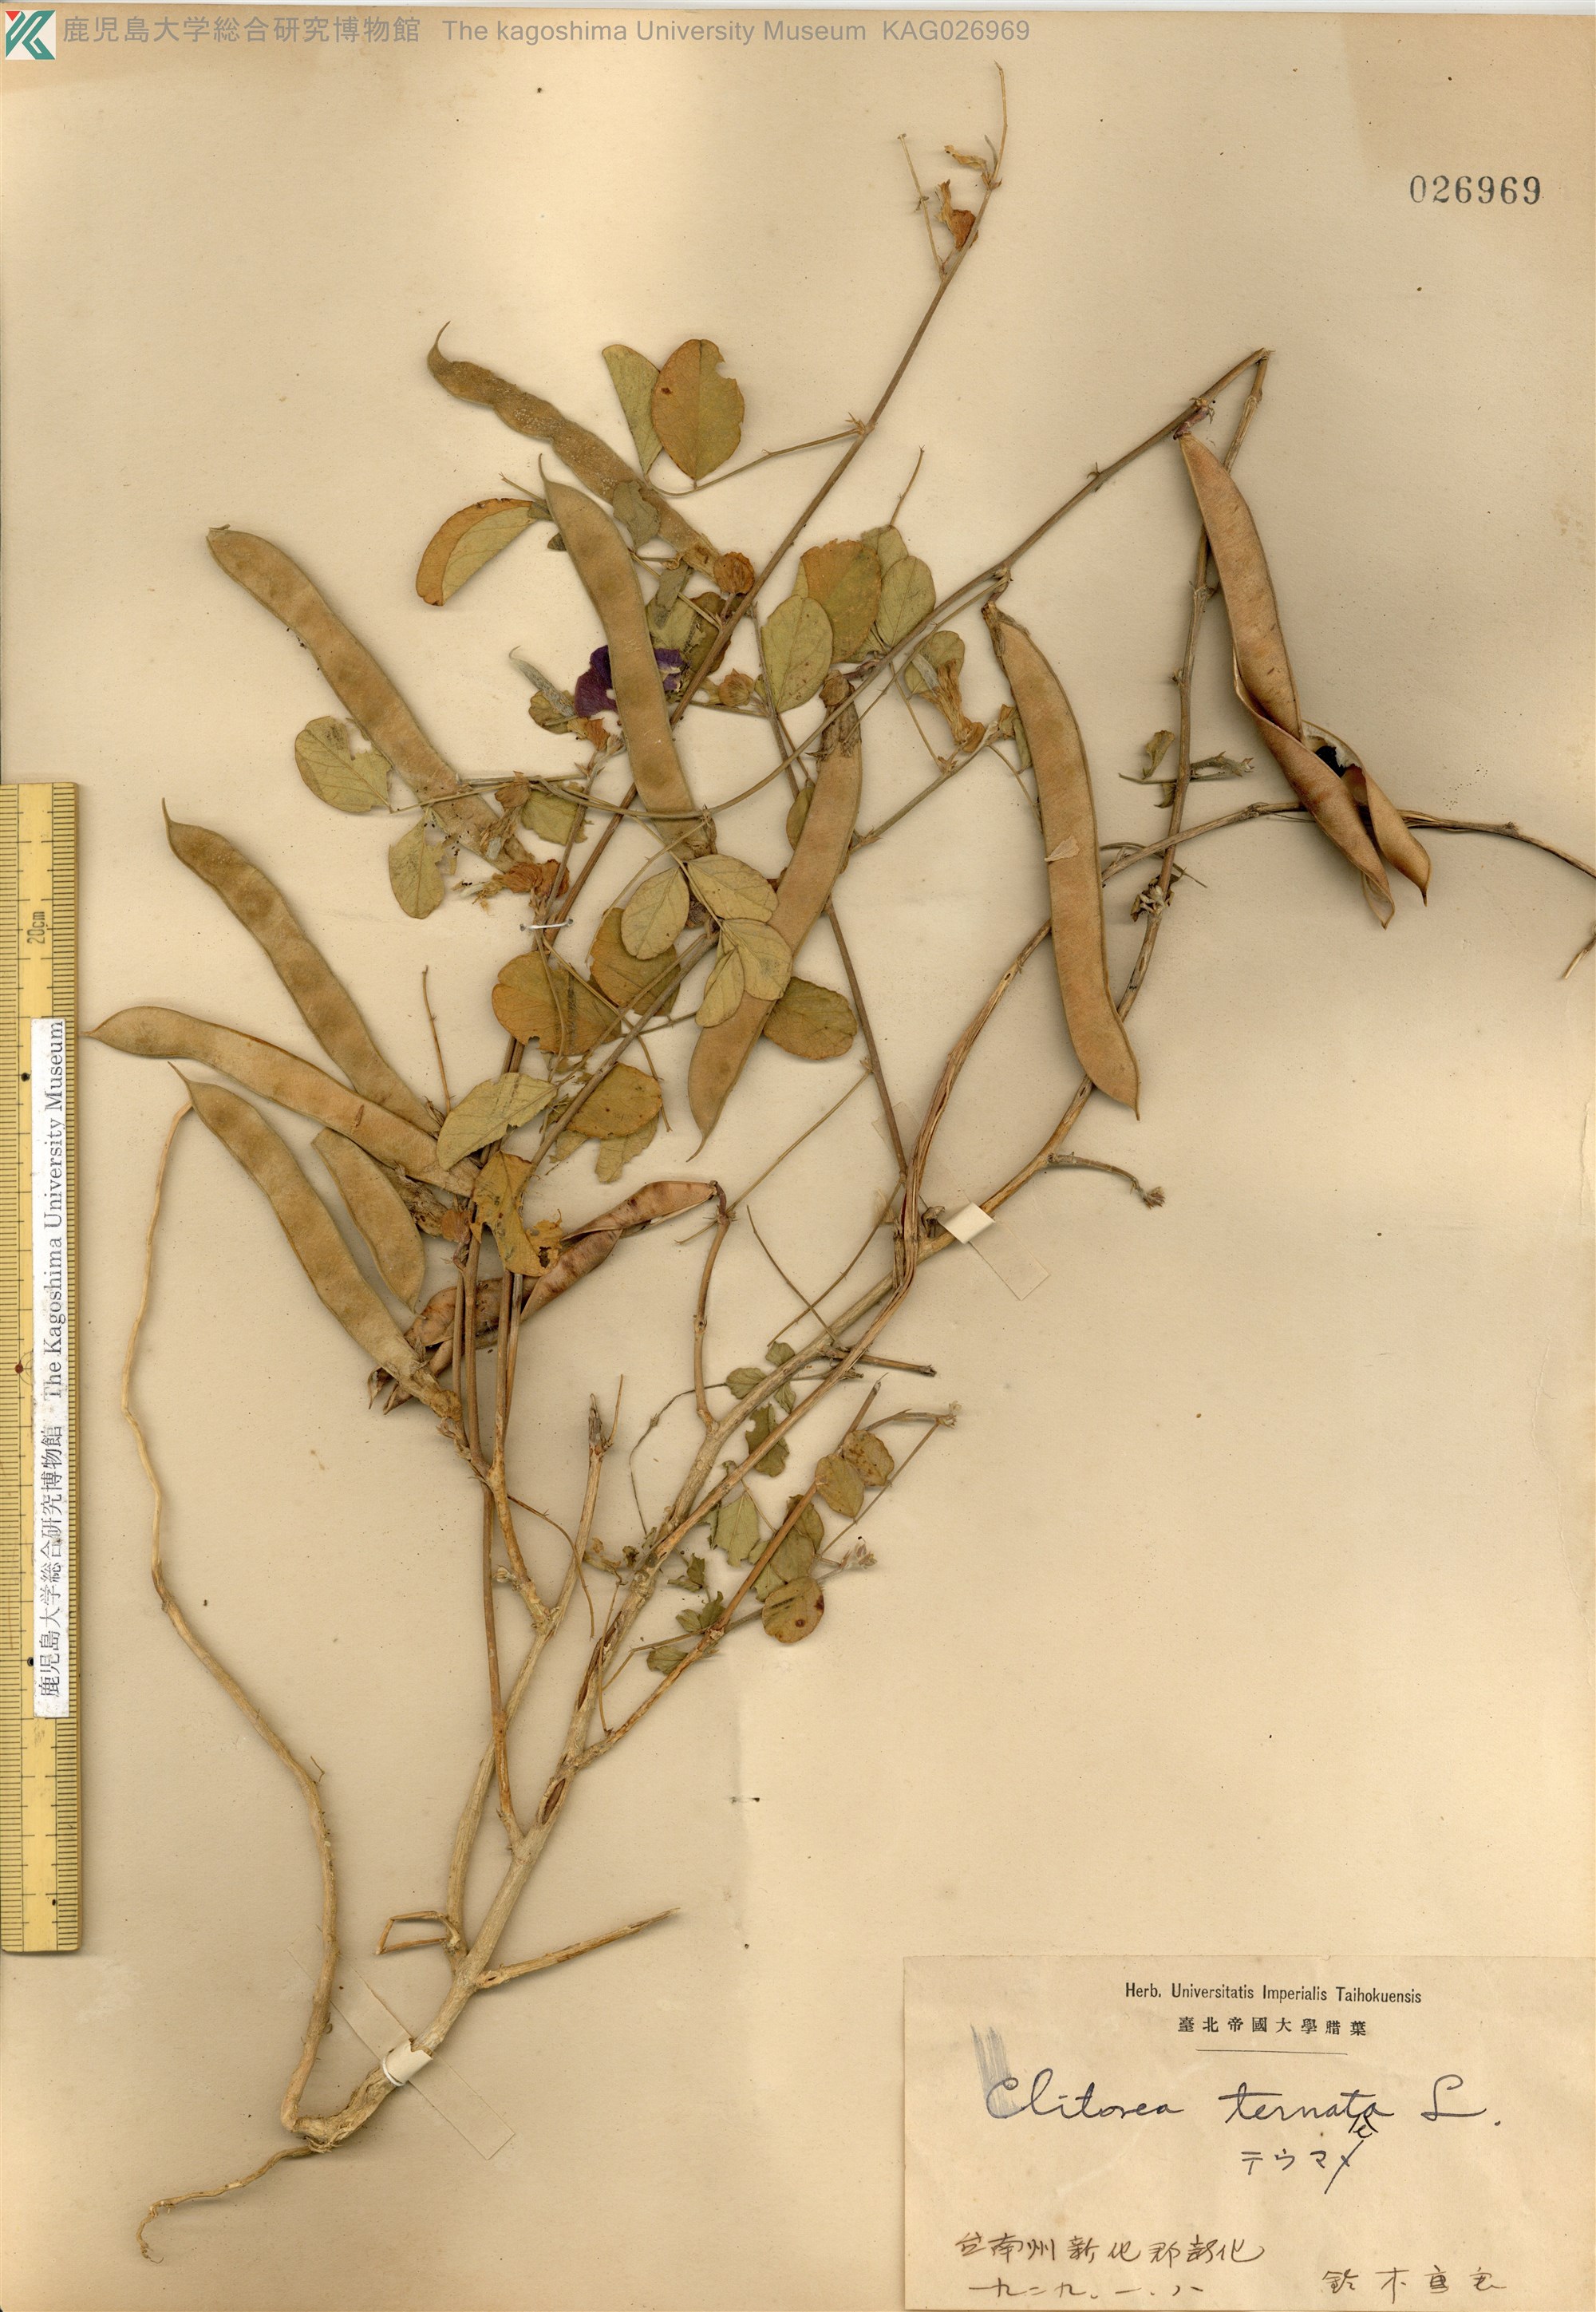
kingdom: Plantae
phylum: Tracheophyta
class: Magnoliopsida
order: Fabales
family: Fabaceae
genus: Clitoria
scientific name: Clitoria ternatea
